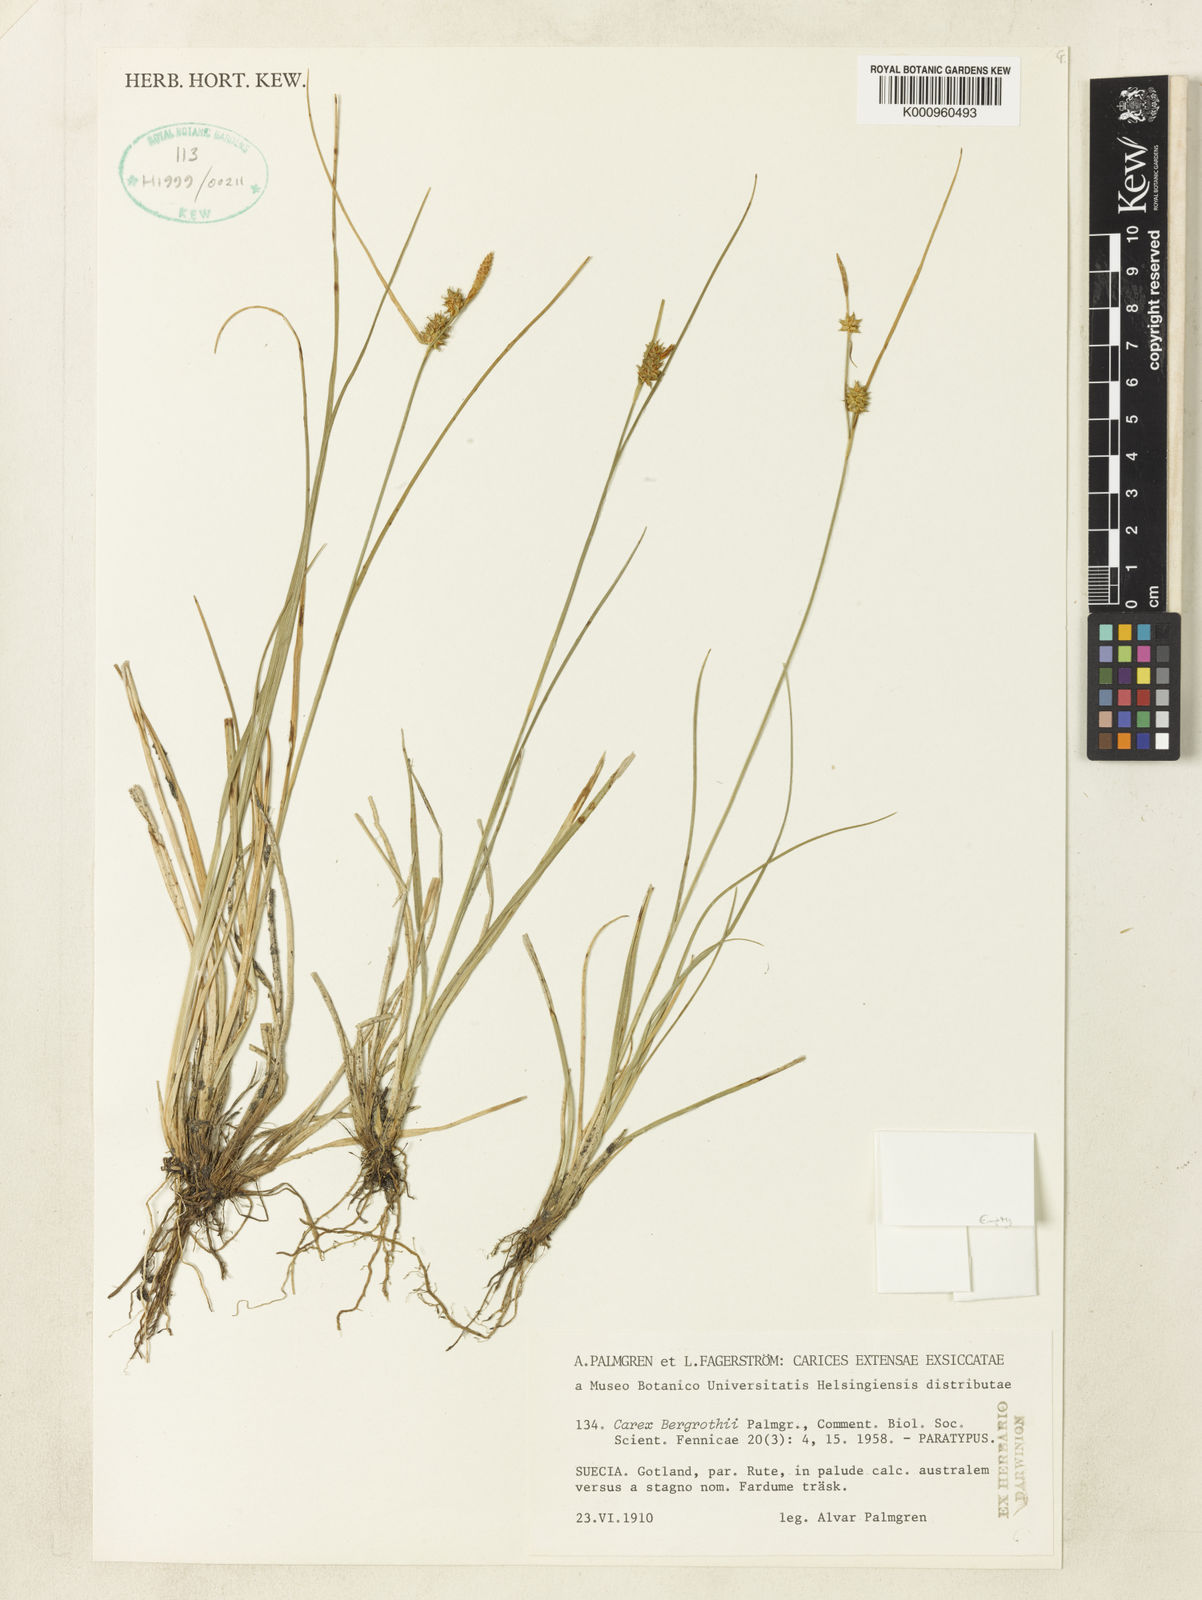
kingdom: Plantae
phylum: Tracheophyta
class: Liliopsida
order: Poales
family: Cyperaceae
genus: Carex
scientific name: Carex oederi
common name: Common & small-fruited yellow-sedge
